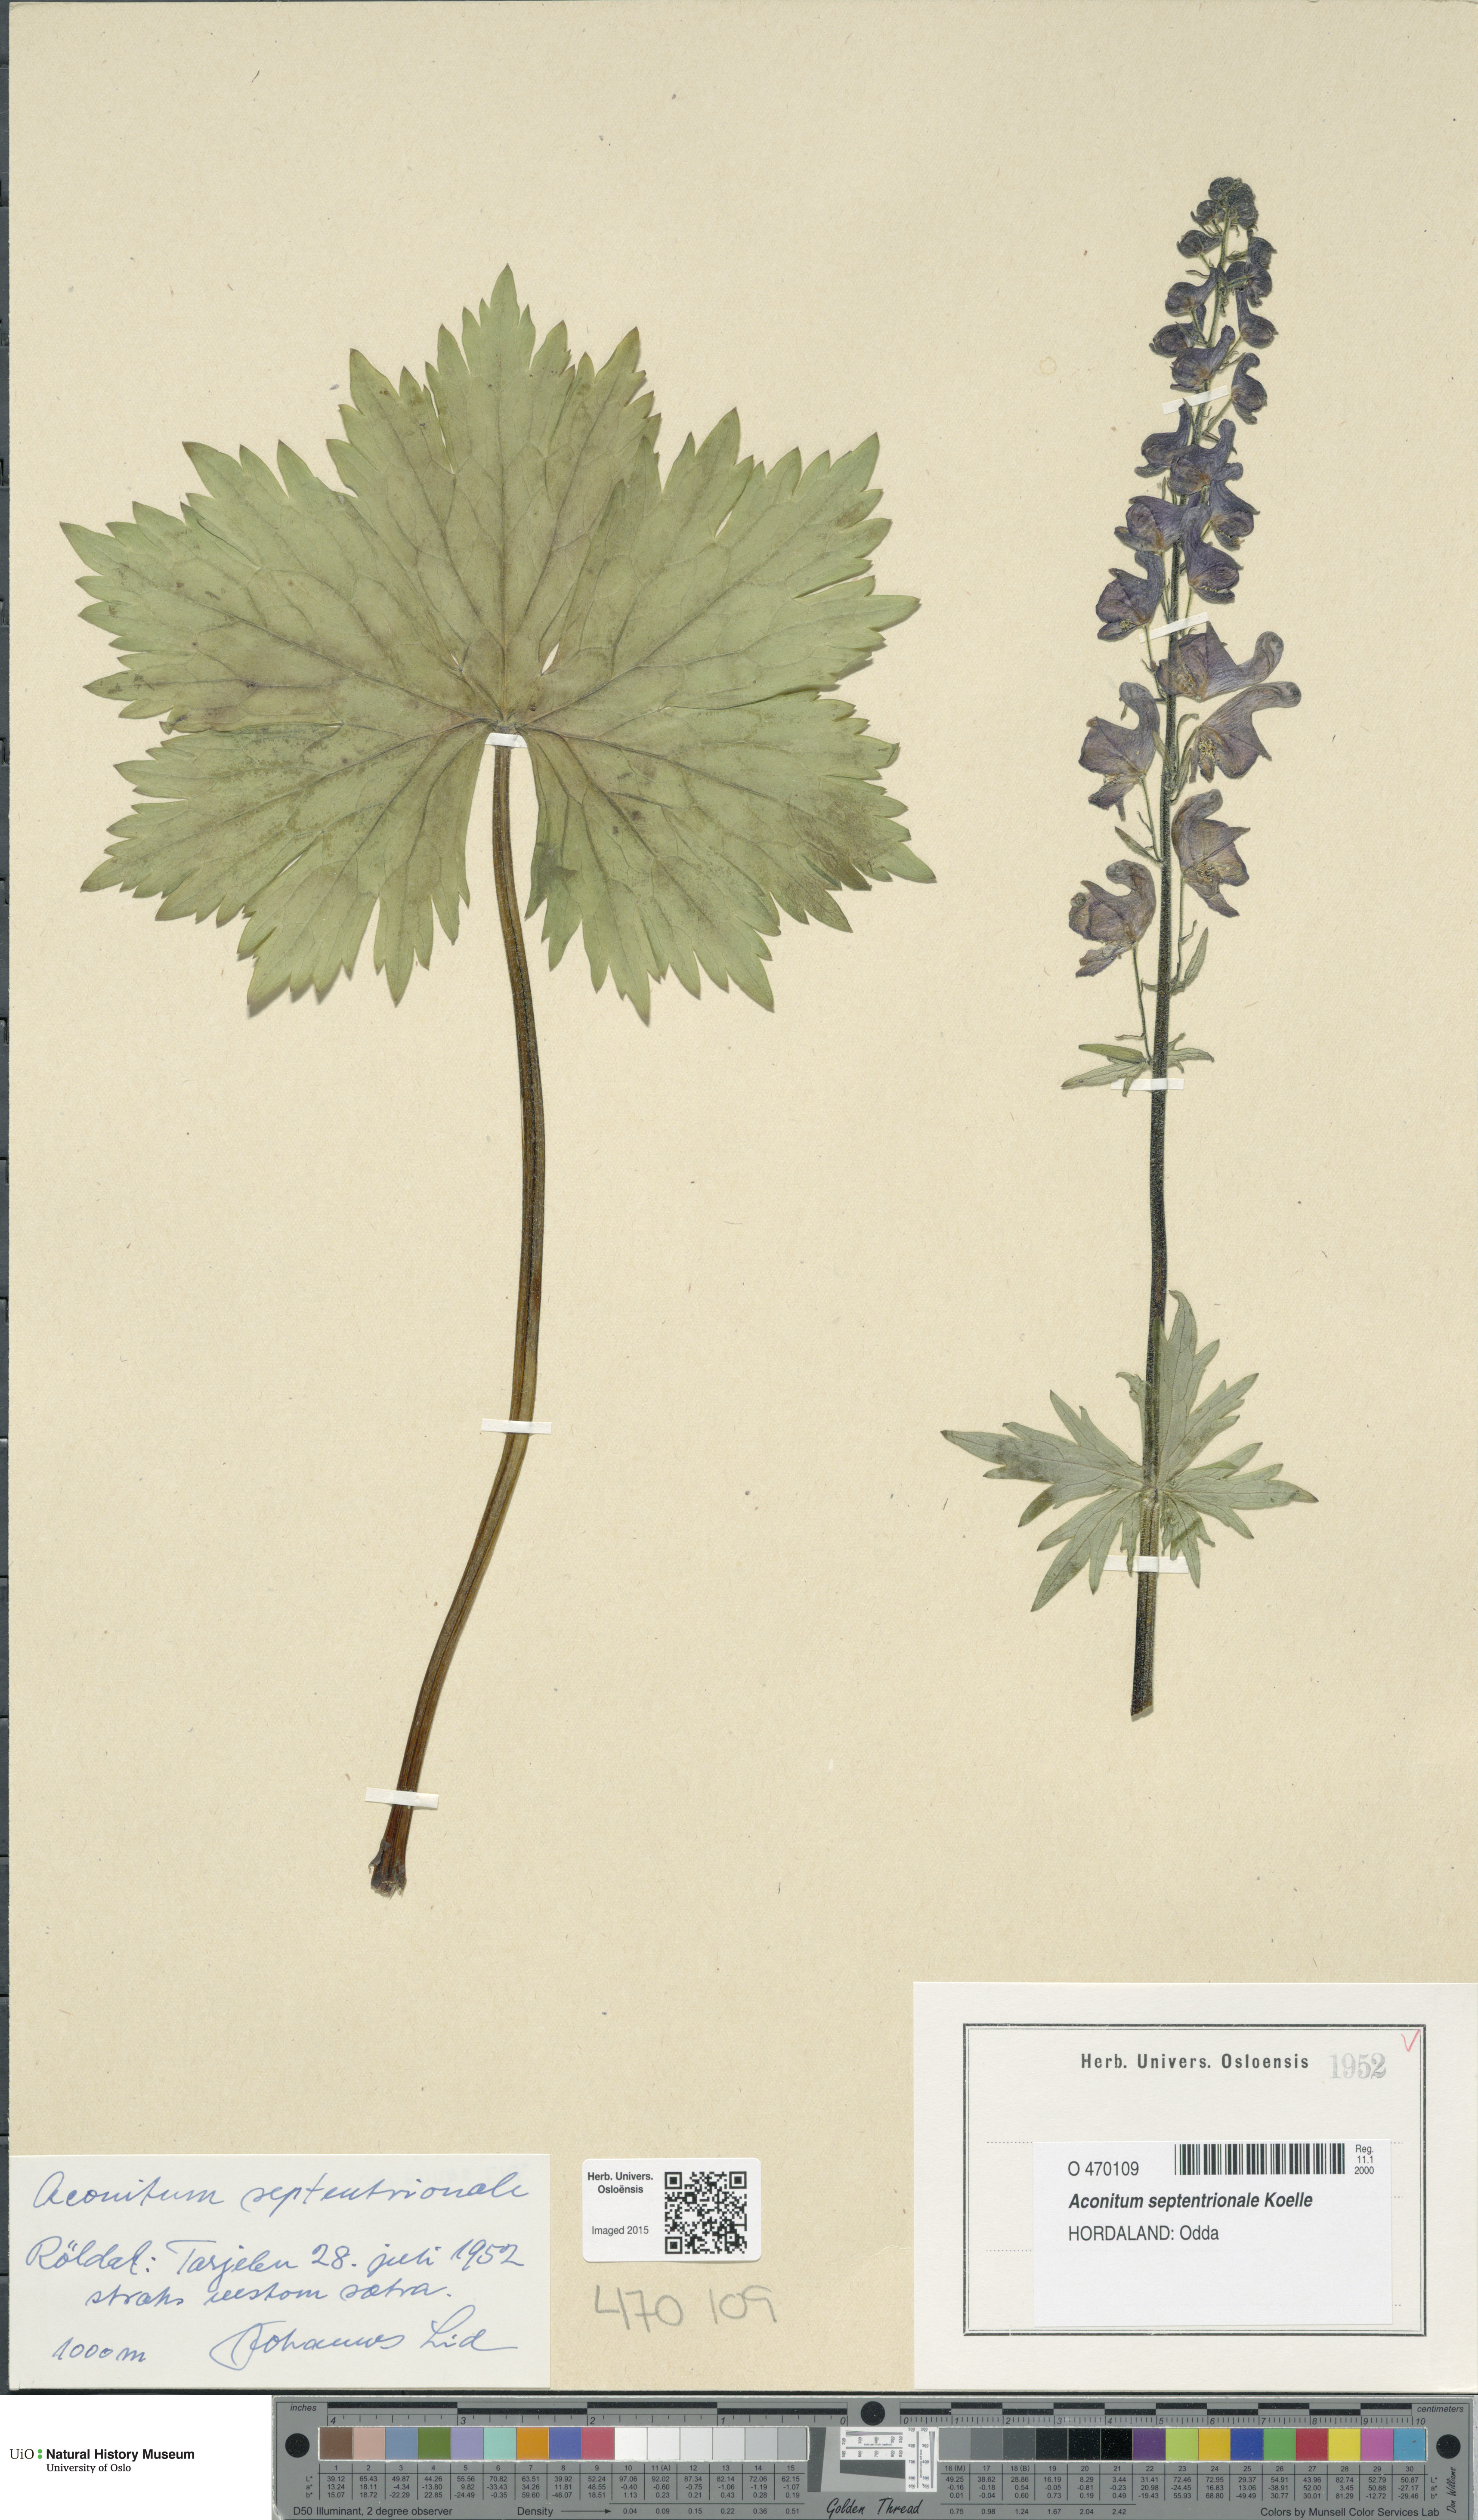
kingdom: Plantae
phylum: Tracheophyta
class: Magnoliopsida
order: Ranunculales
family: Ranunculaceae
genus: Aconitum
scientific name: Aconitum septentrionale
